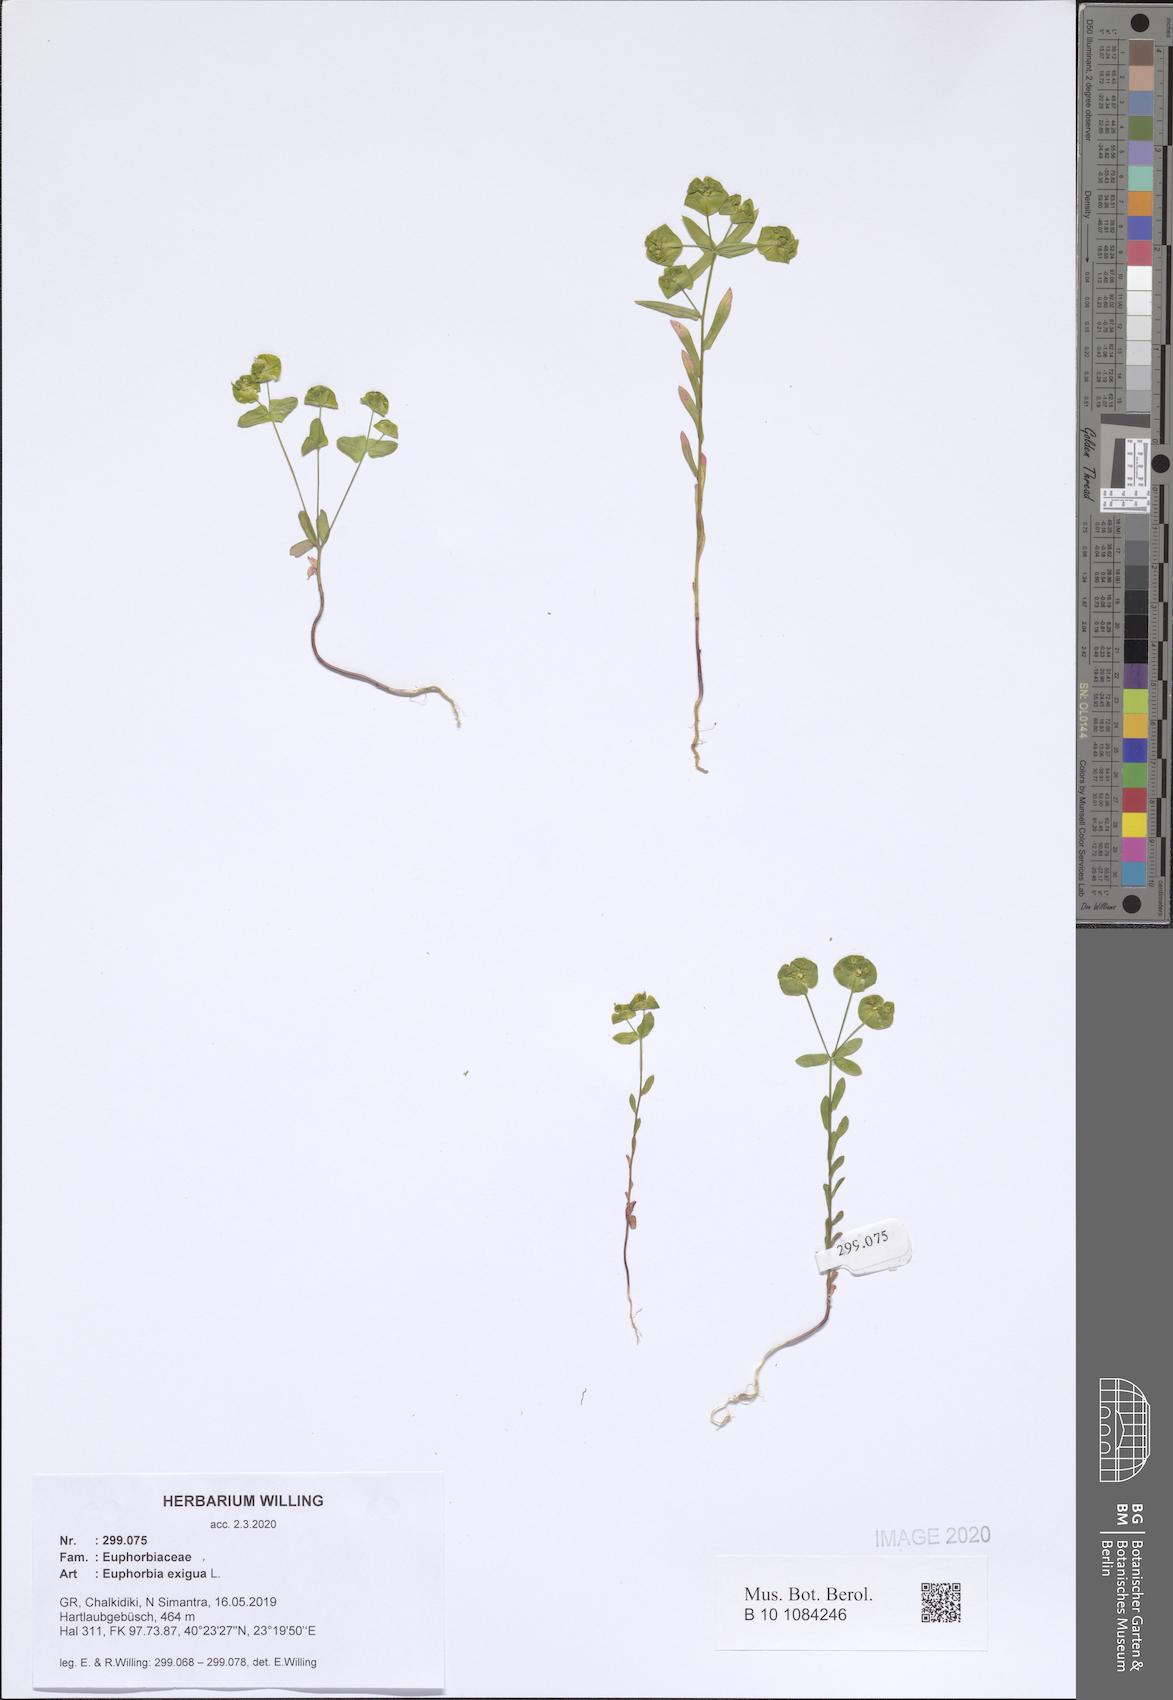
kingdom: Plantae
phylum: Tracheophyta
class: Magnoliopsida
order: Malpighiales
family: Euphorbiaceae
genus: Euphorbia
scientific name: Euphorbia exigua
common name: Dwarf spurge
